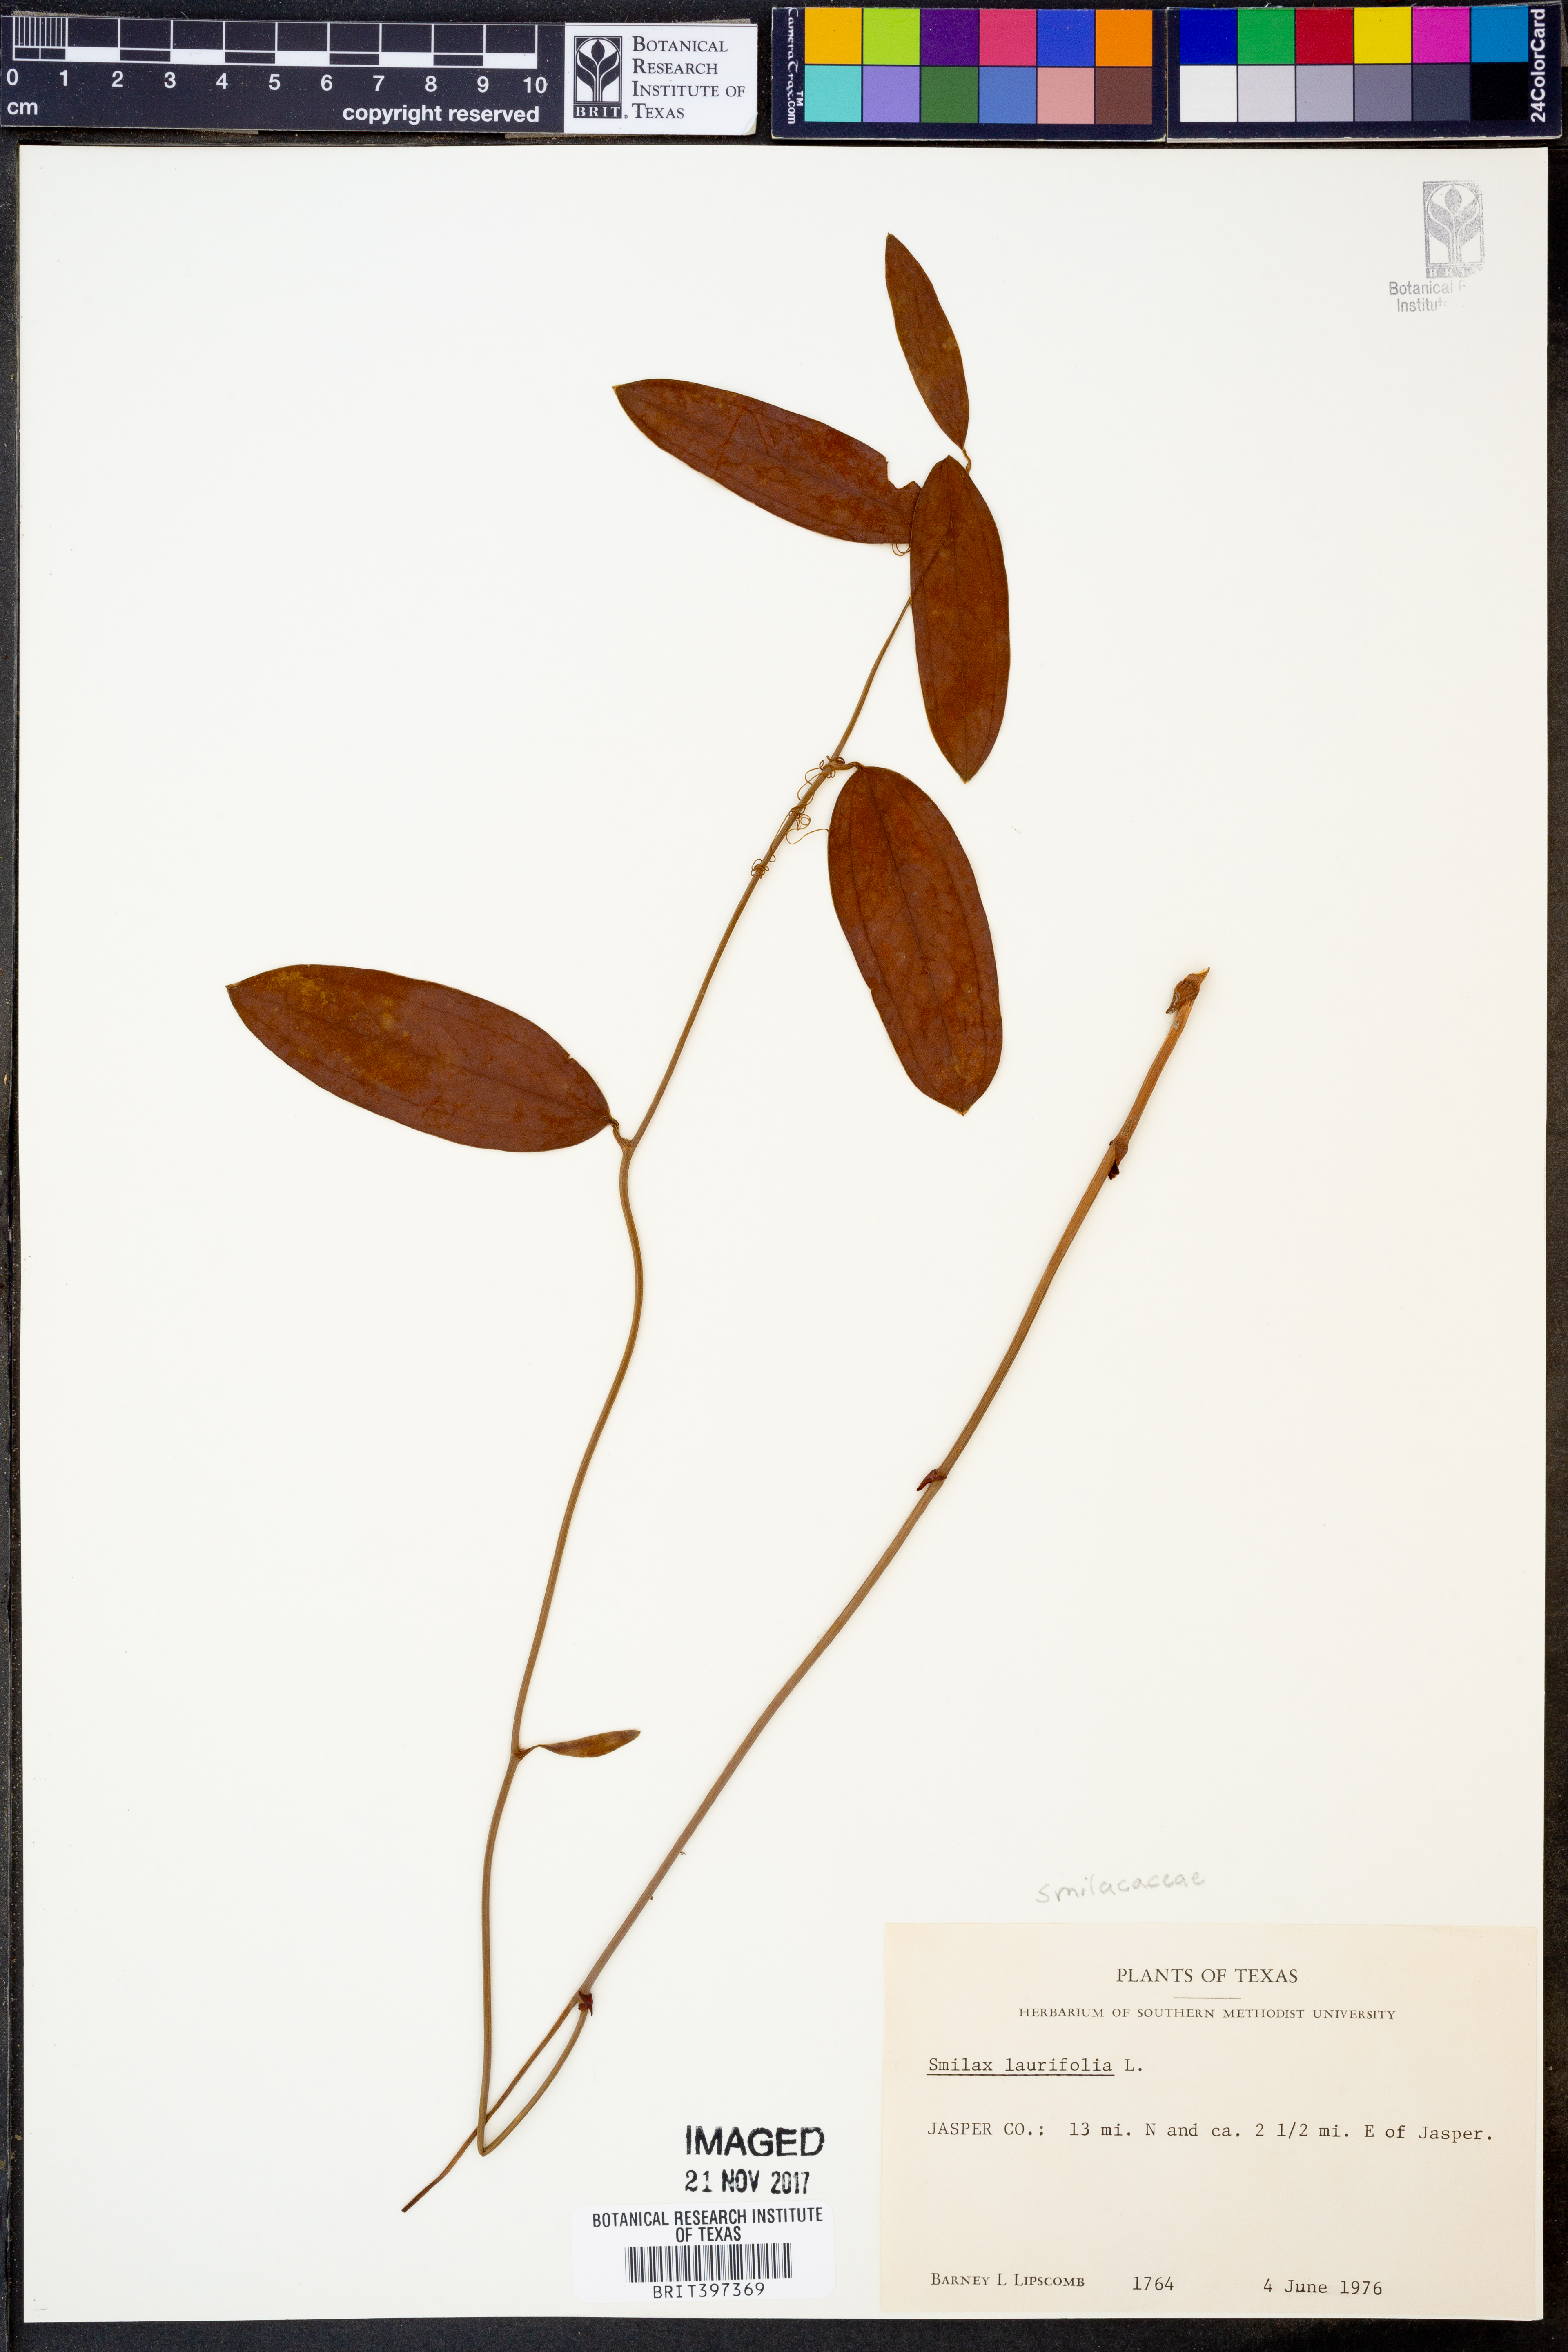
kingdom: Plantae
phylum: Tracheophyta
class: Liliopsida
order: Liliales
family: Smilacaceae
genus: Smilax
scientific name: Smilax laurifolia
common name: Bamboovine
